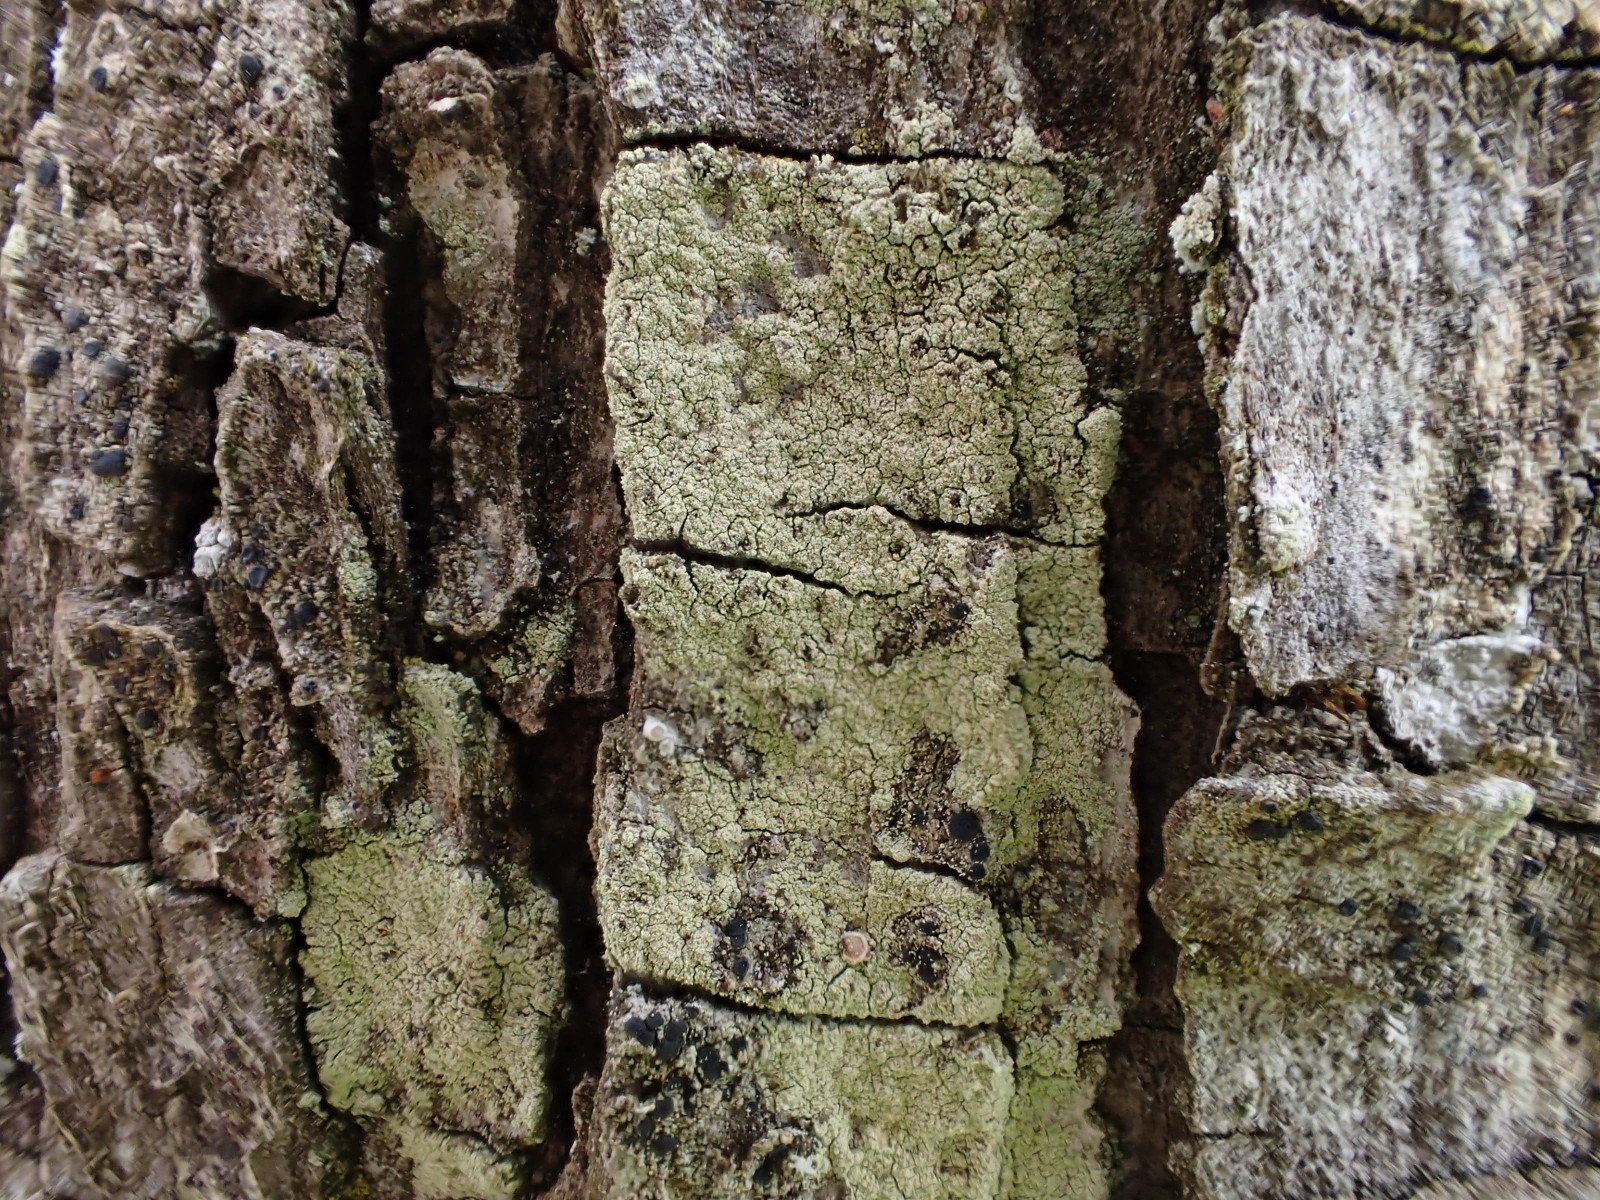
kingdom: Fungi
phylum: Ascomycota
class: Lecanoromycetes
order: Lecanorales
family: Lecanoraceae
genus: Lecidella
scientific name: Lecidella elaeochroma
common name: grågrøn skivelav
